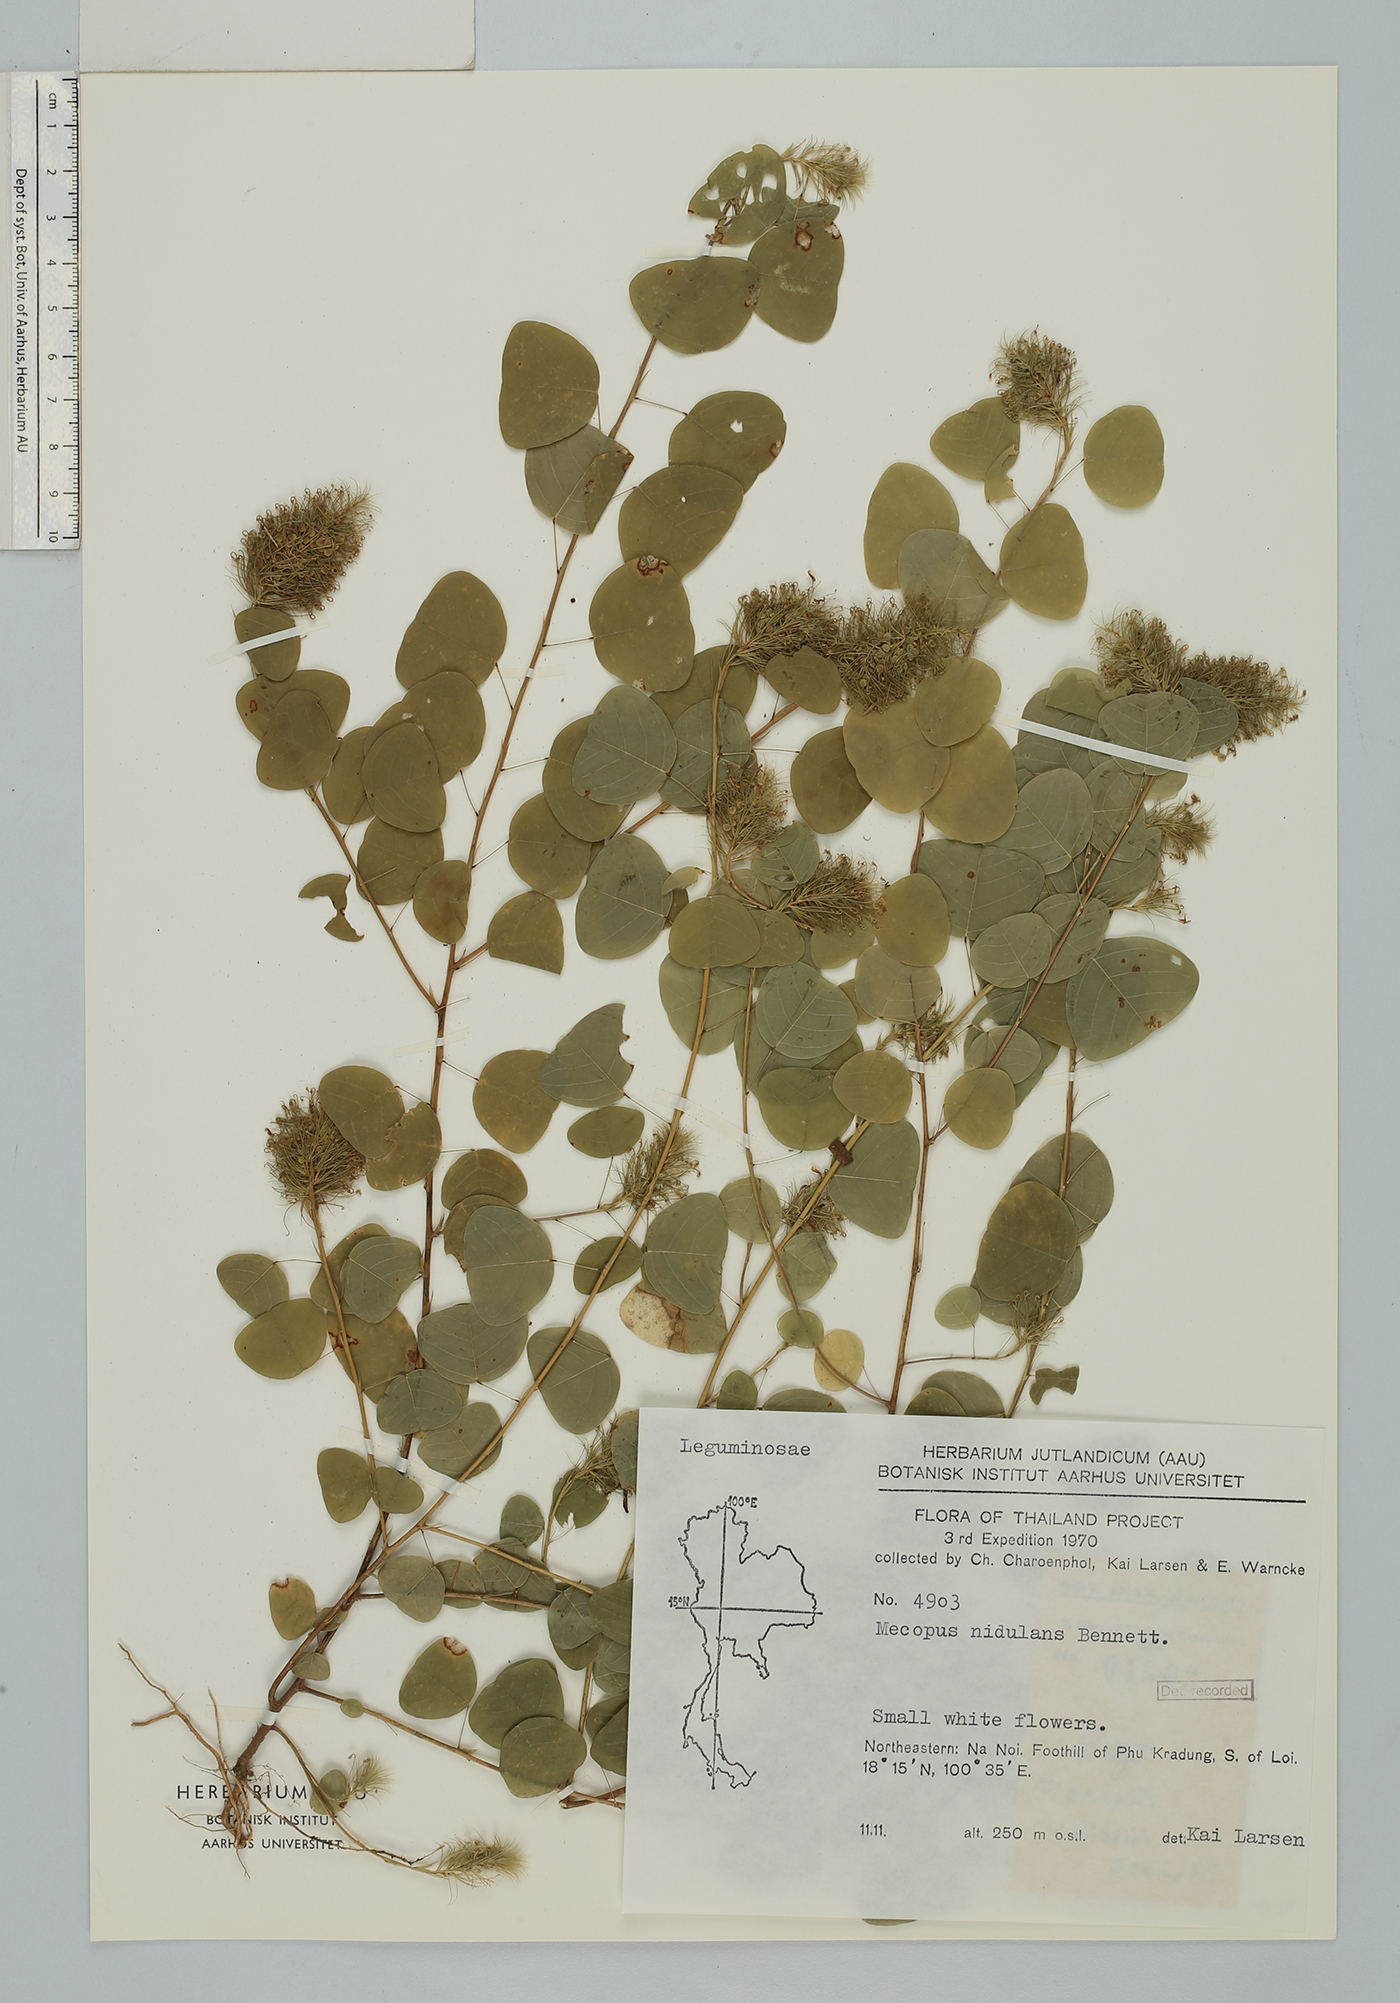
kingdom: Plantae
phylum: Tracheophyta
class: Magnoliopsida
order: Fabales
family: Fabaceae
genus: Mecopus
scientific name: Mecopus nidulans
